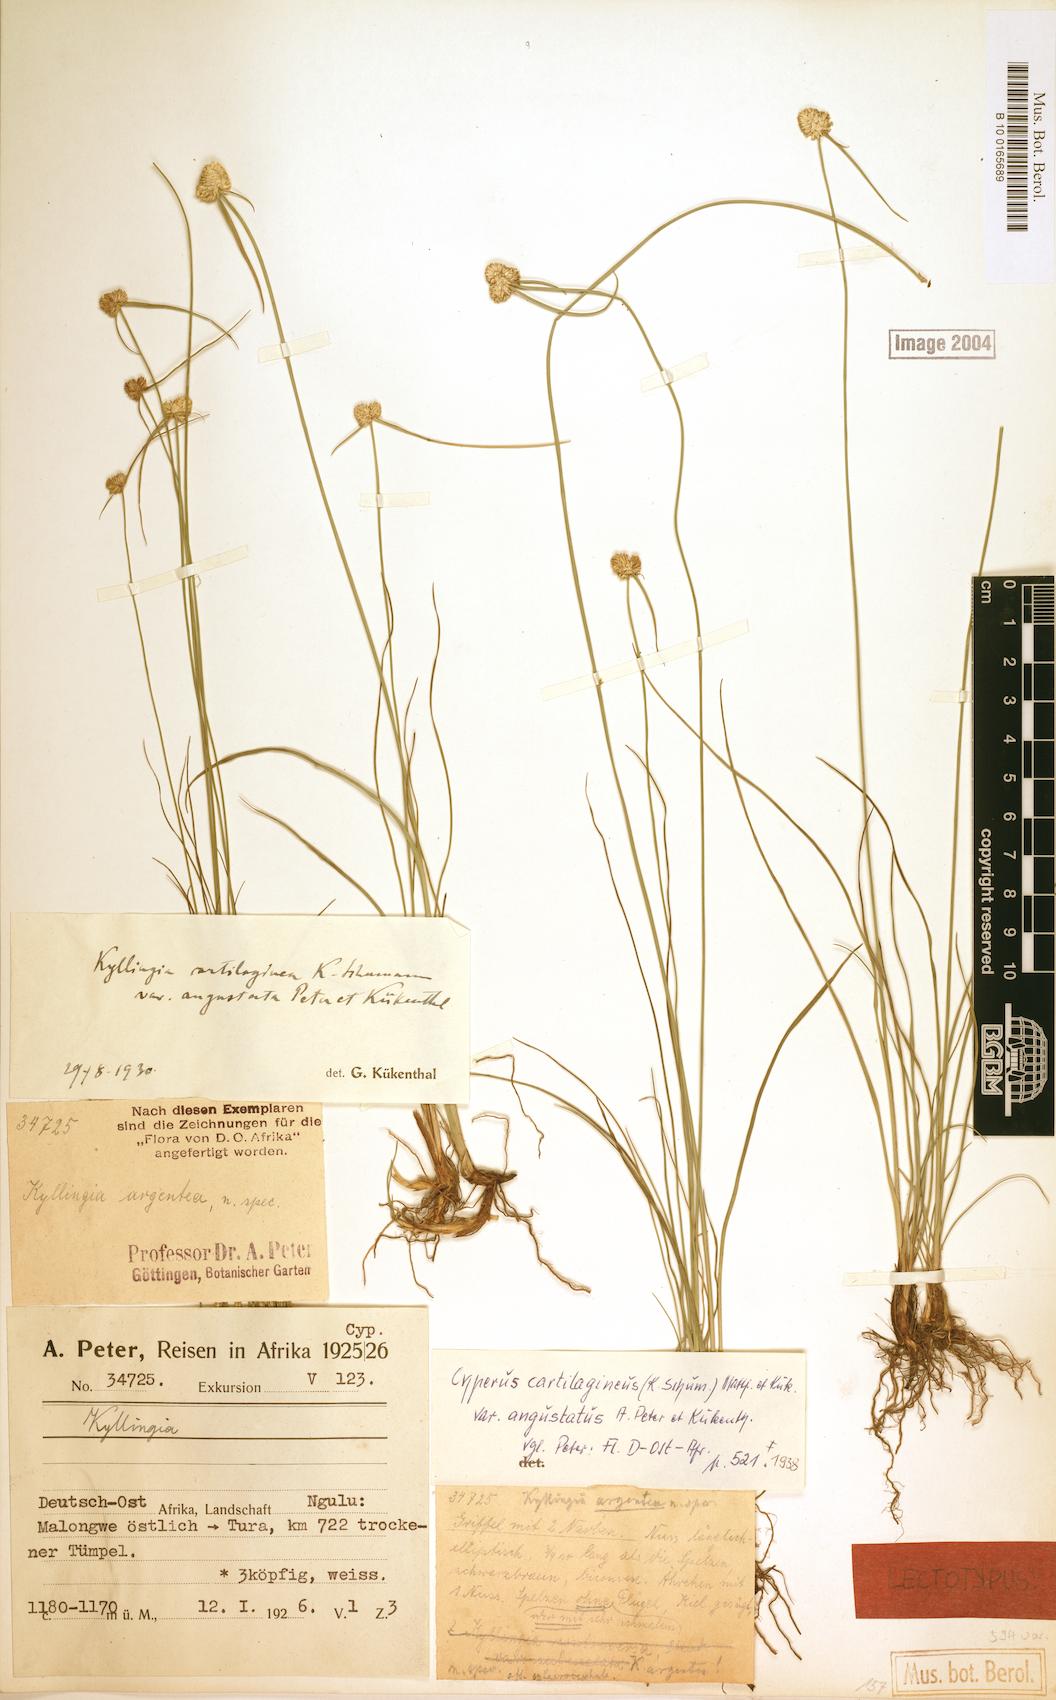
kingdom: Plantae
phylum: Tracheophyta
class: Liliopsida
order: Poales
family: Cyperaceae
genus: Cyperus
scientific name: Cyperus comosipes
